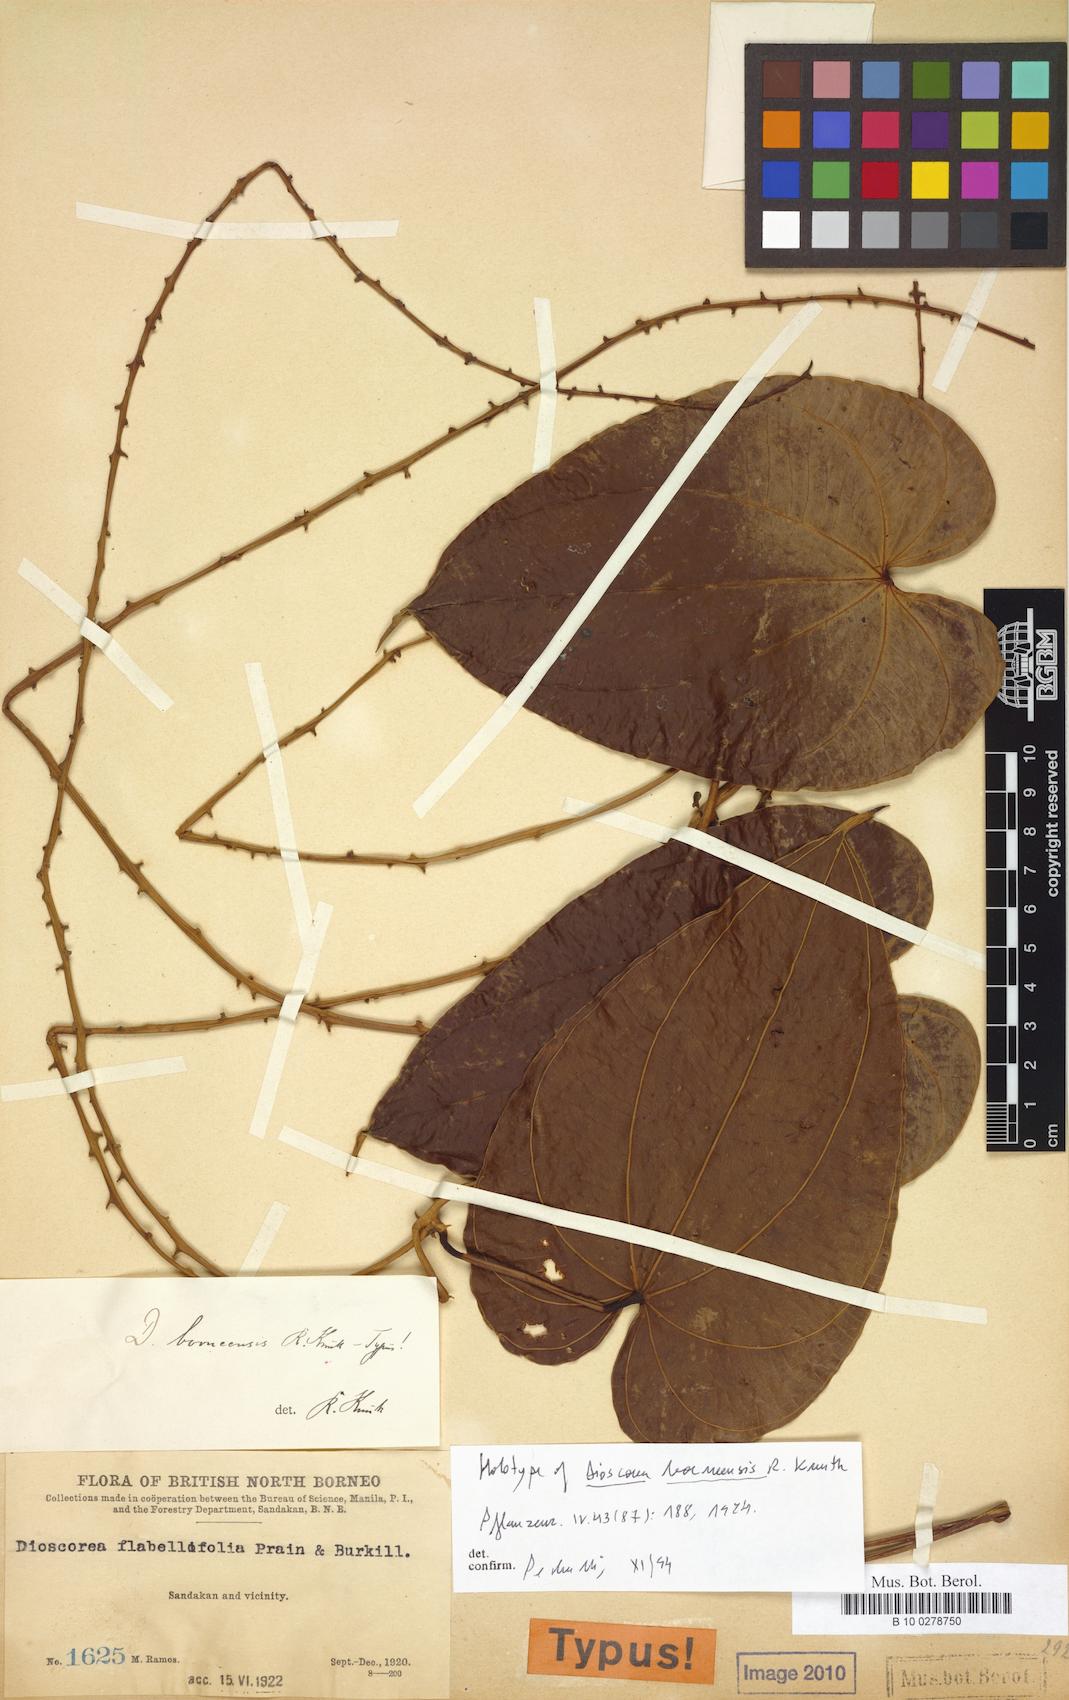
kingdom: Plantae
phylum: Tracheophyta
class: Liliopsida
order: Dioscoreales
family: Dioscoreaceae
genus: Dioscorea
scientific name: Dioscorea piscatorum
